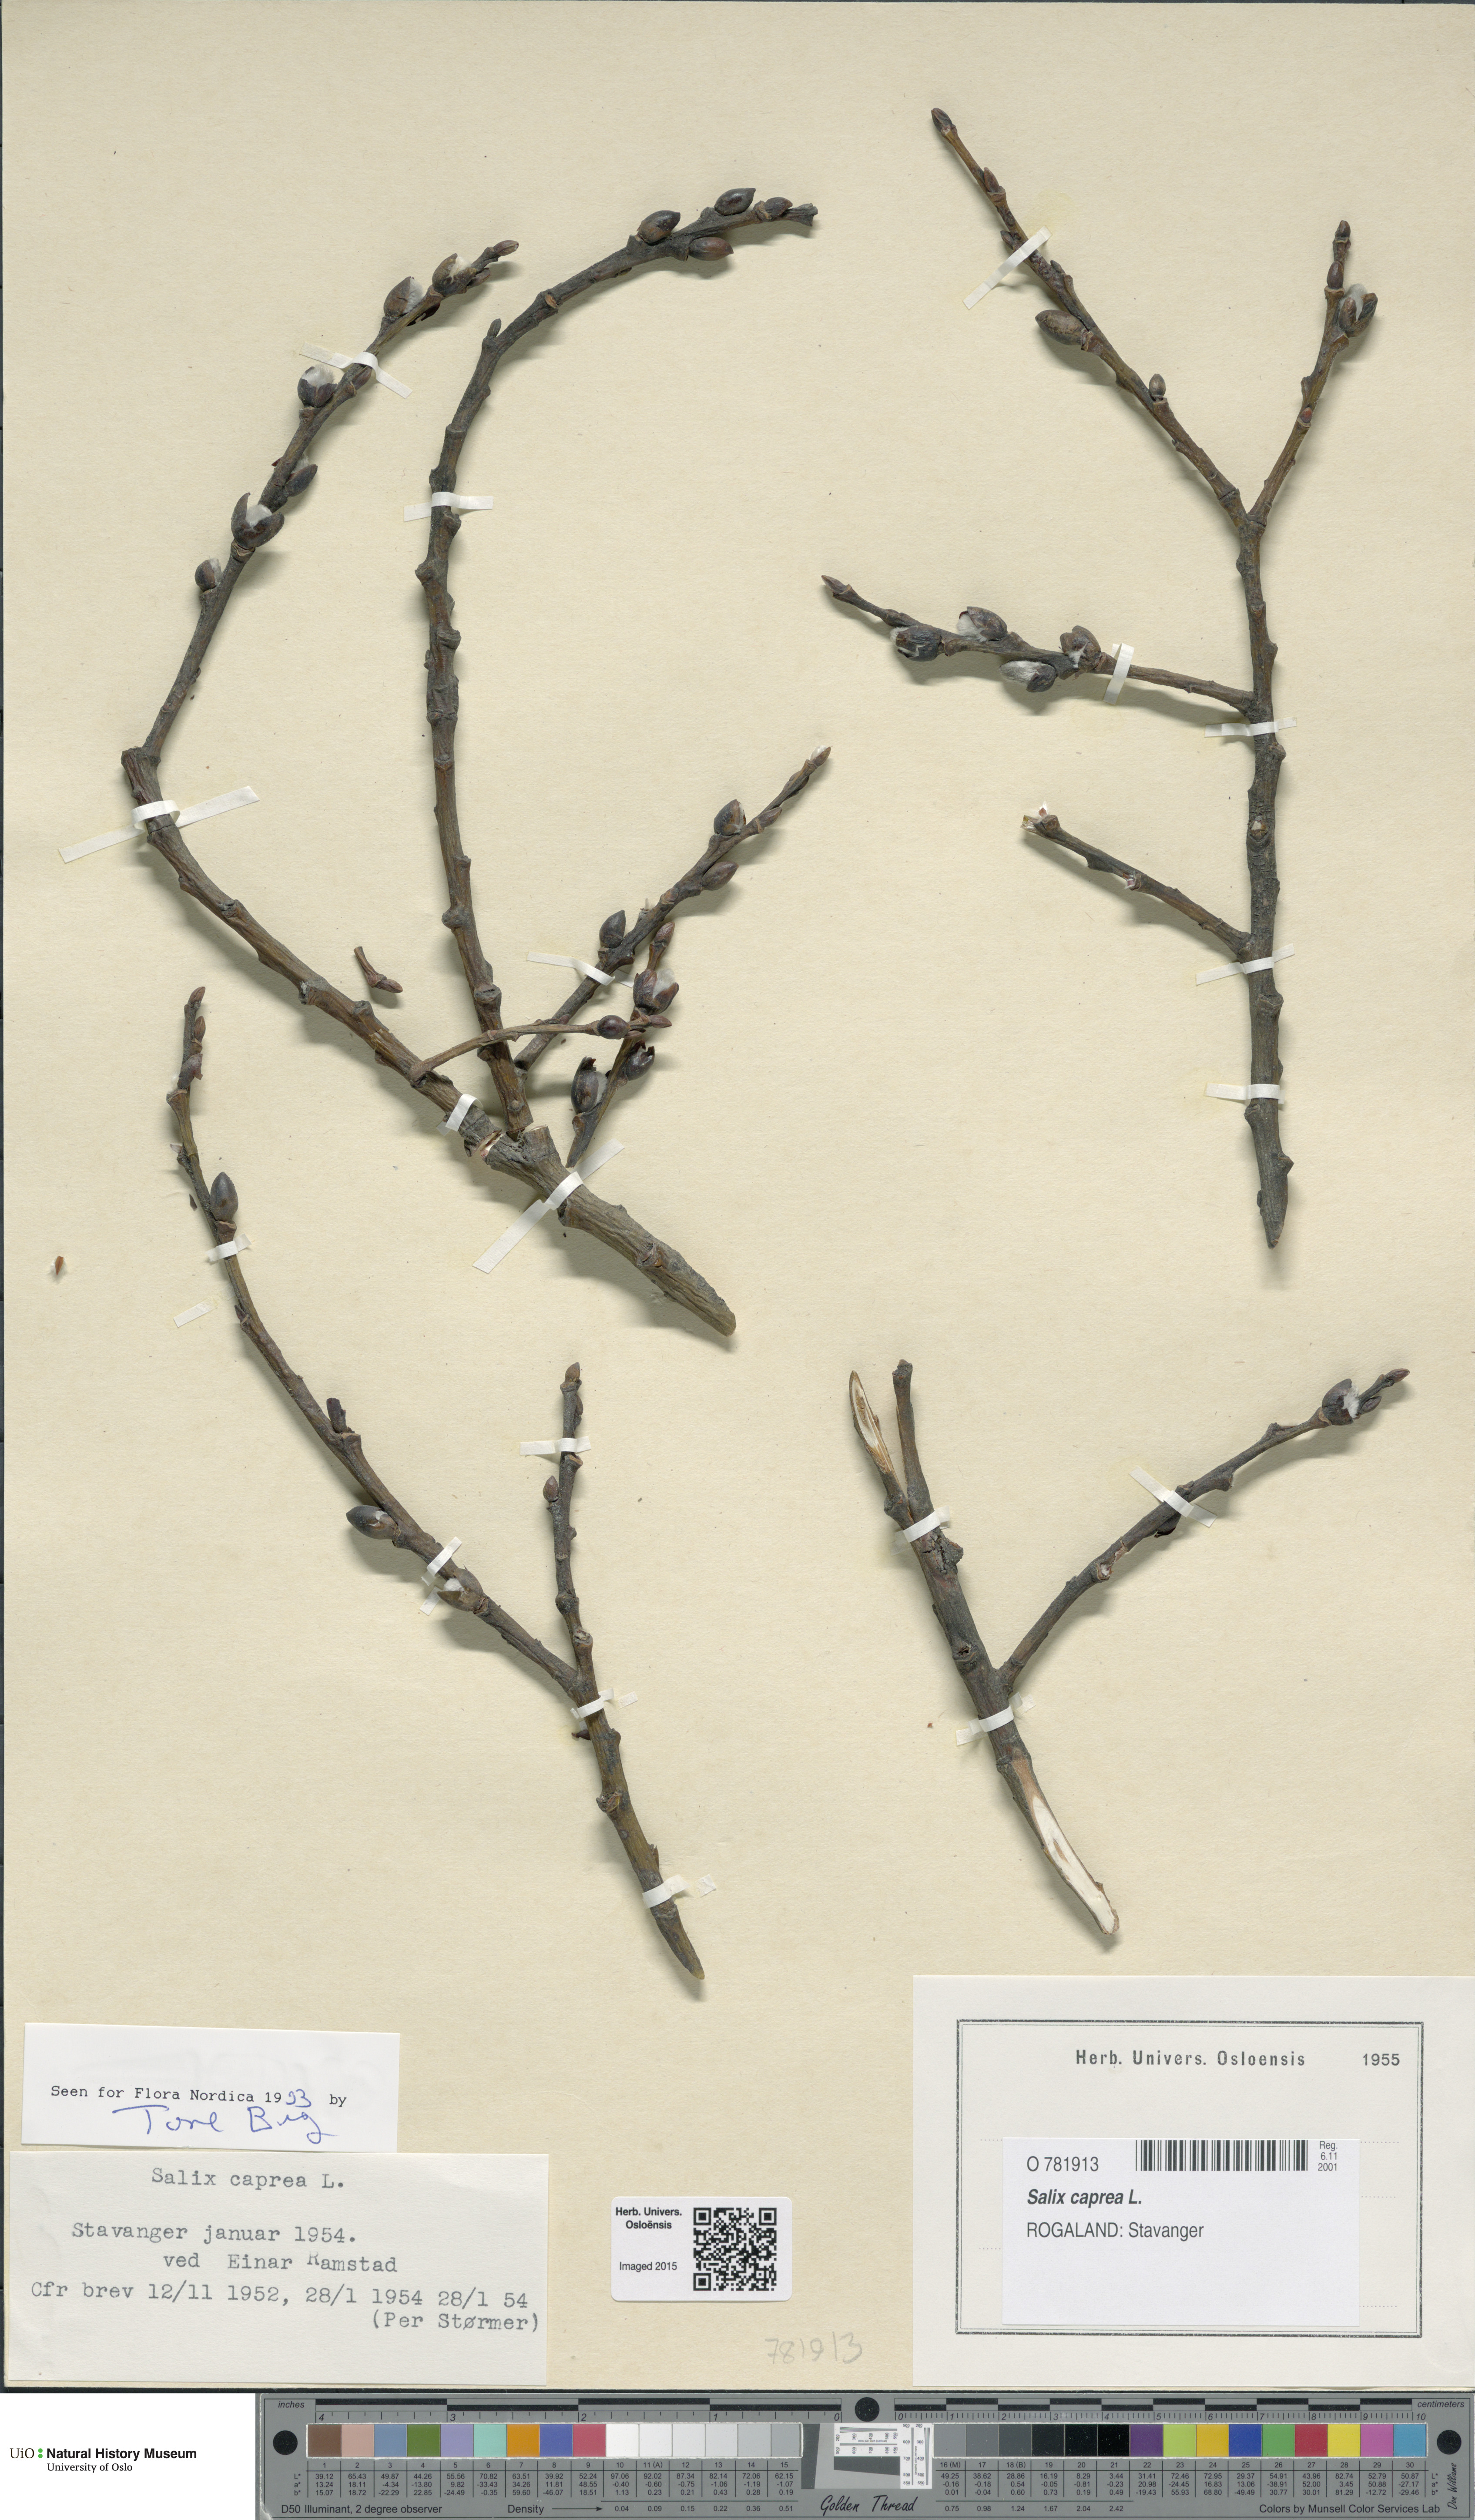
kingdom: Plantae
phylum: Tracheophyta
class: Magnoliopsida
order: Malpighiales
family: Salicaceae
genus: Salix
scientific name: Salix caprea
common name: Goat willow
